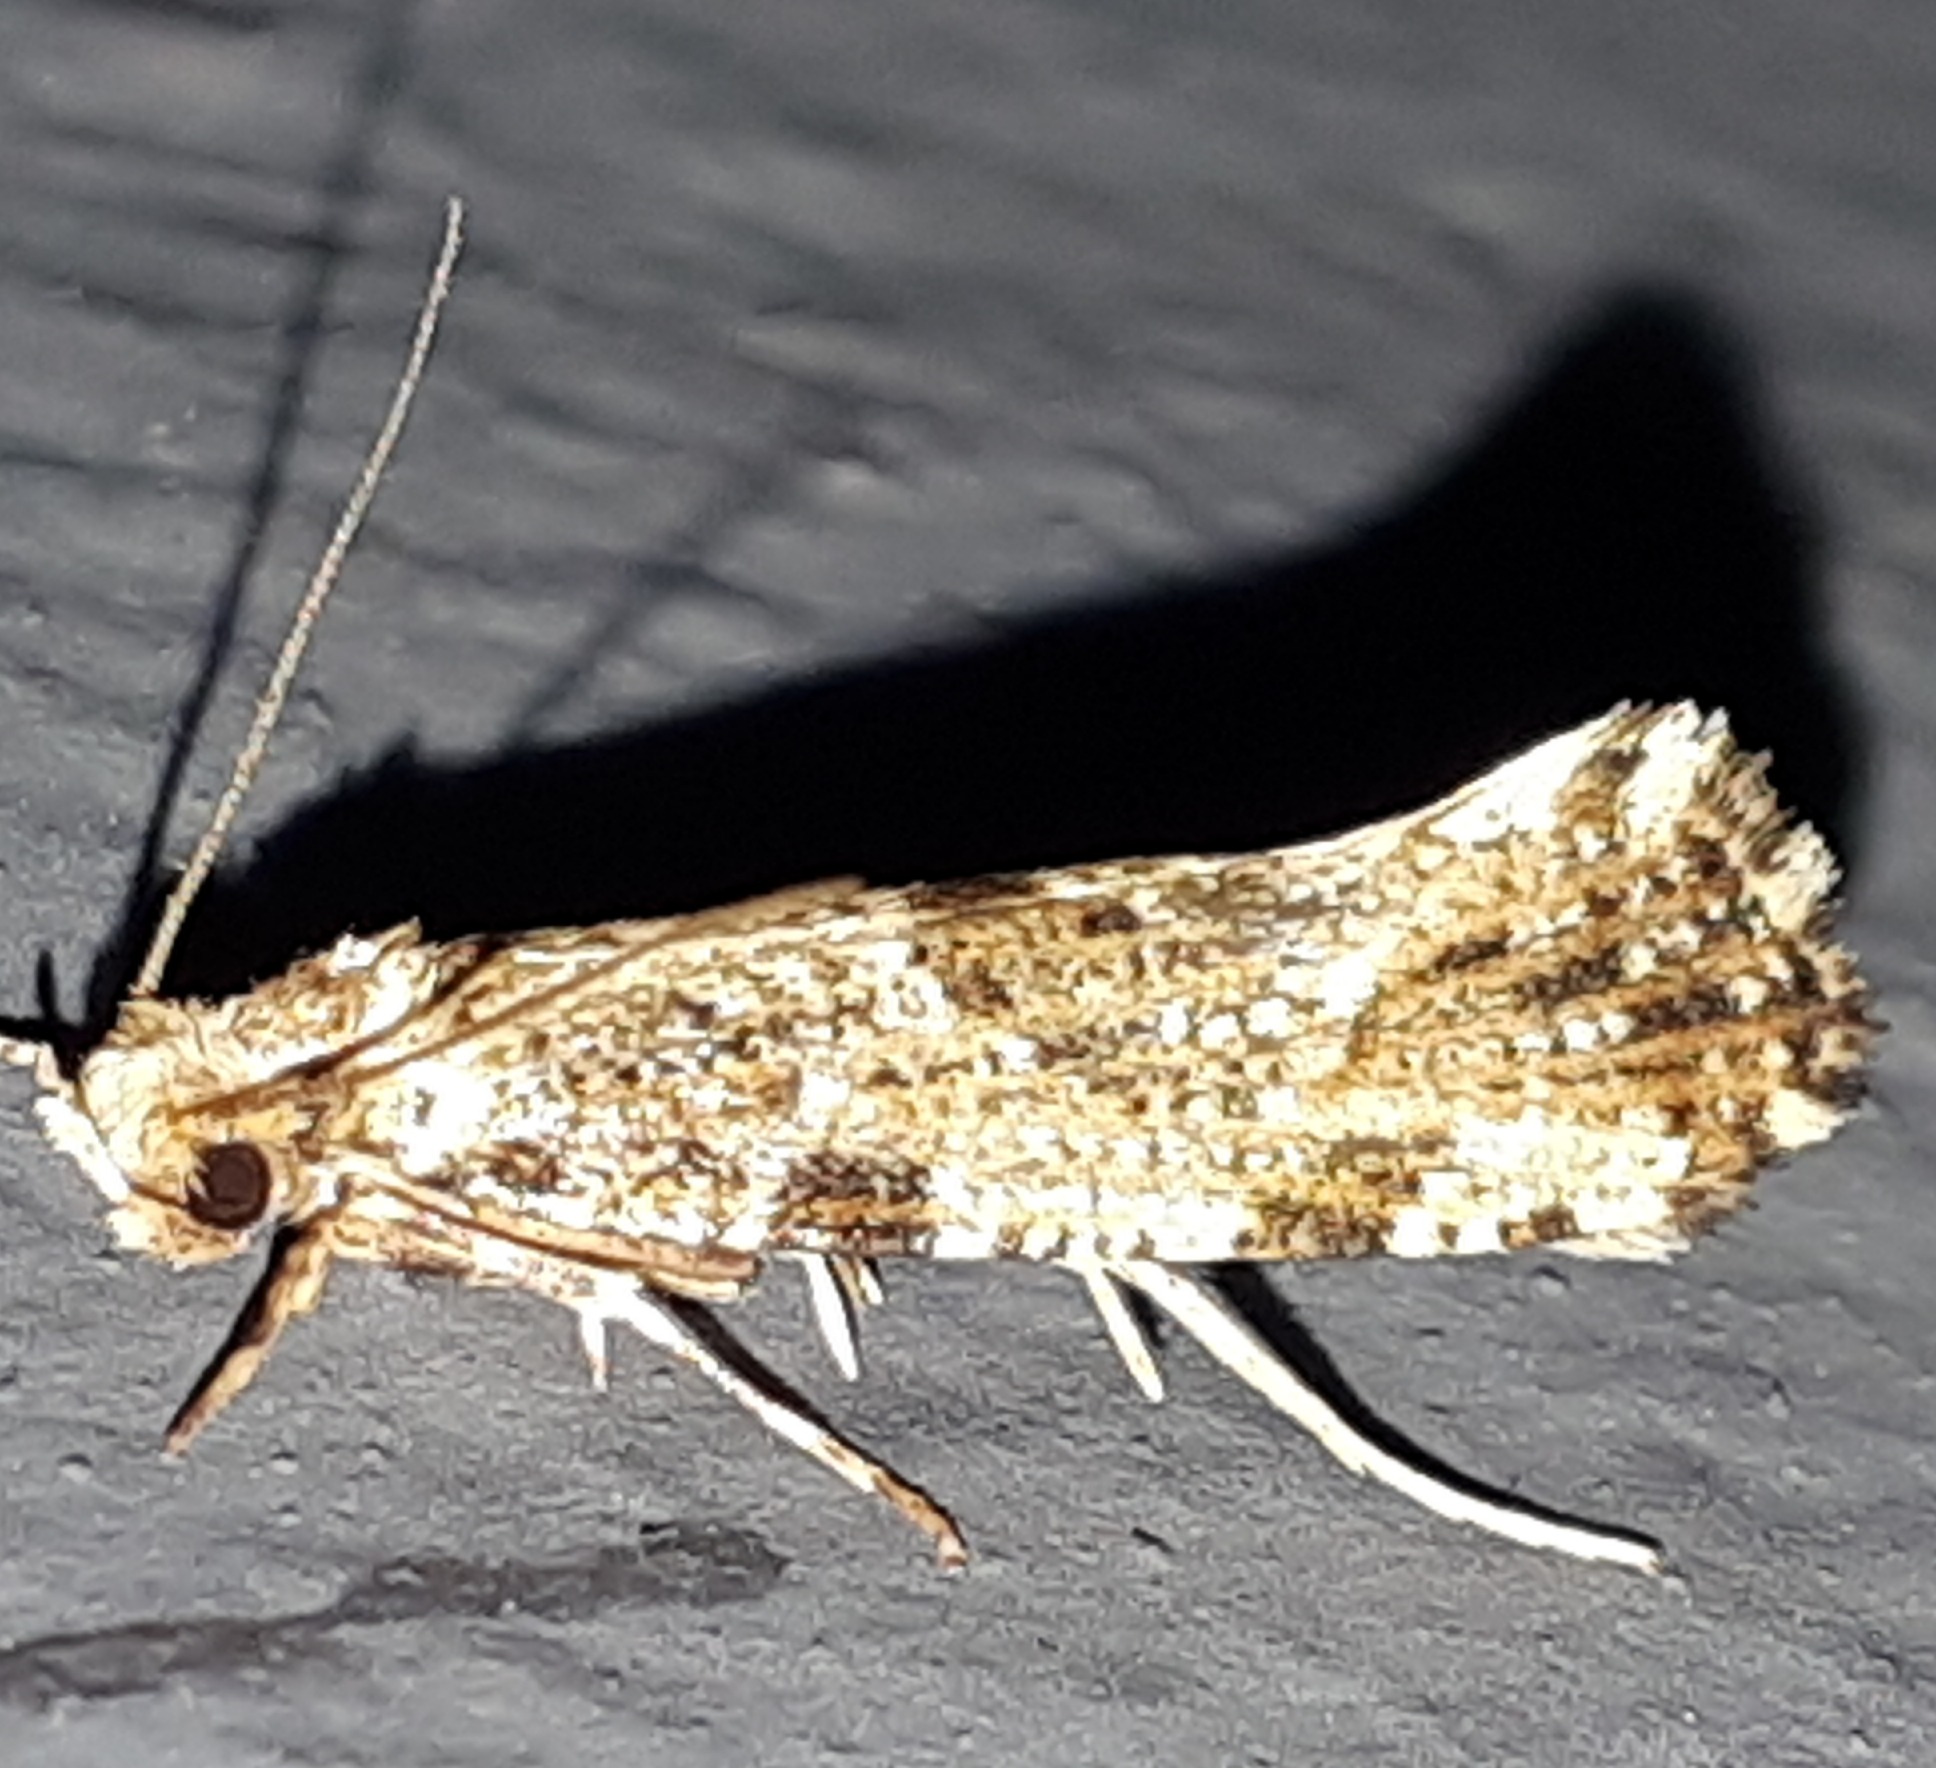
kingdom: Animalia
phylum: Arthropoda
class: Insecta
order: Lepidoptera
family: Tineidae
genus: Morophaga
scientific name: Morophaga choragella
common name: Skråstribet svampemøl
